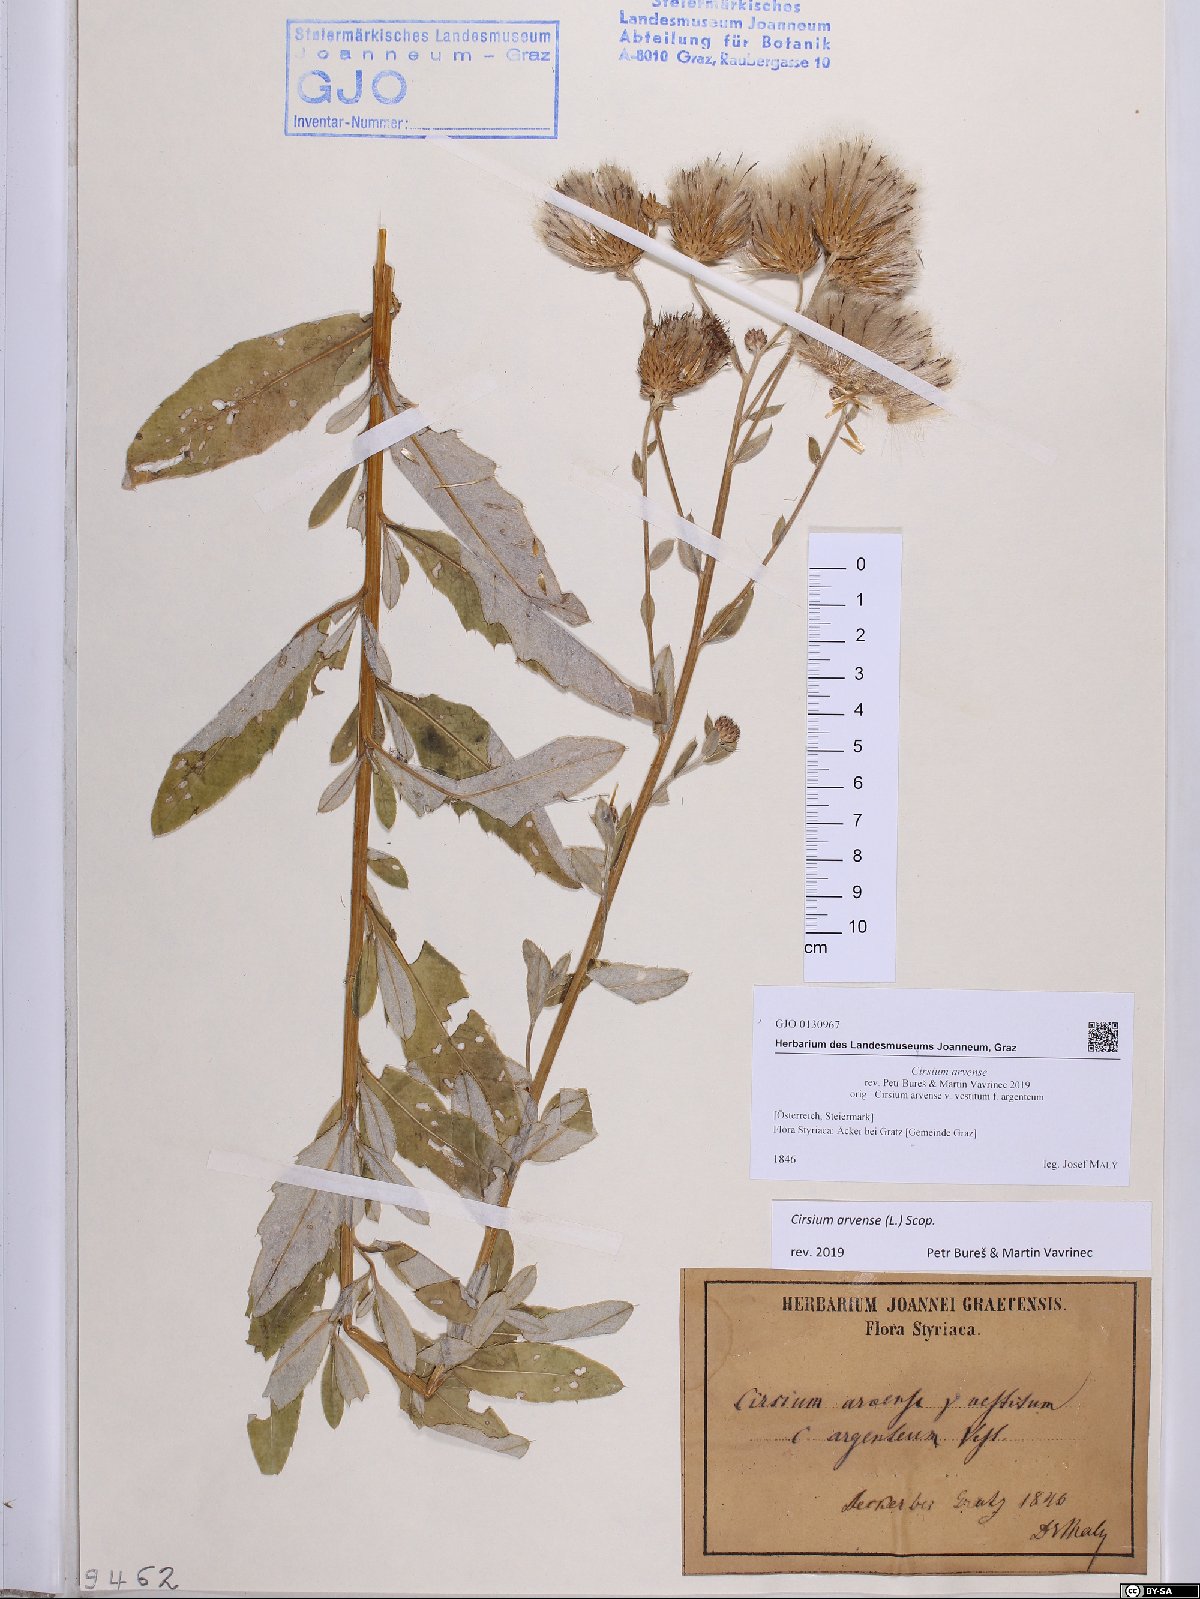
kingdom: Plantae
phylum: Tracheophyta
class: Magnoliopsida
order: Asterales
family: Asteraceae
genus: Cirsium
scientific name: Cirsium arvense
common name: Creeping thistle
